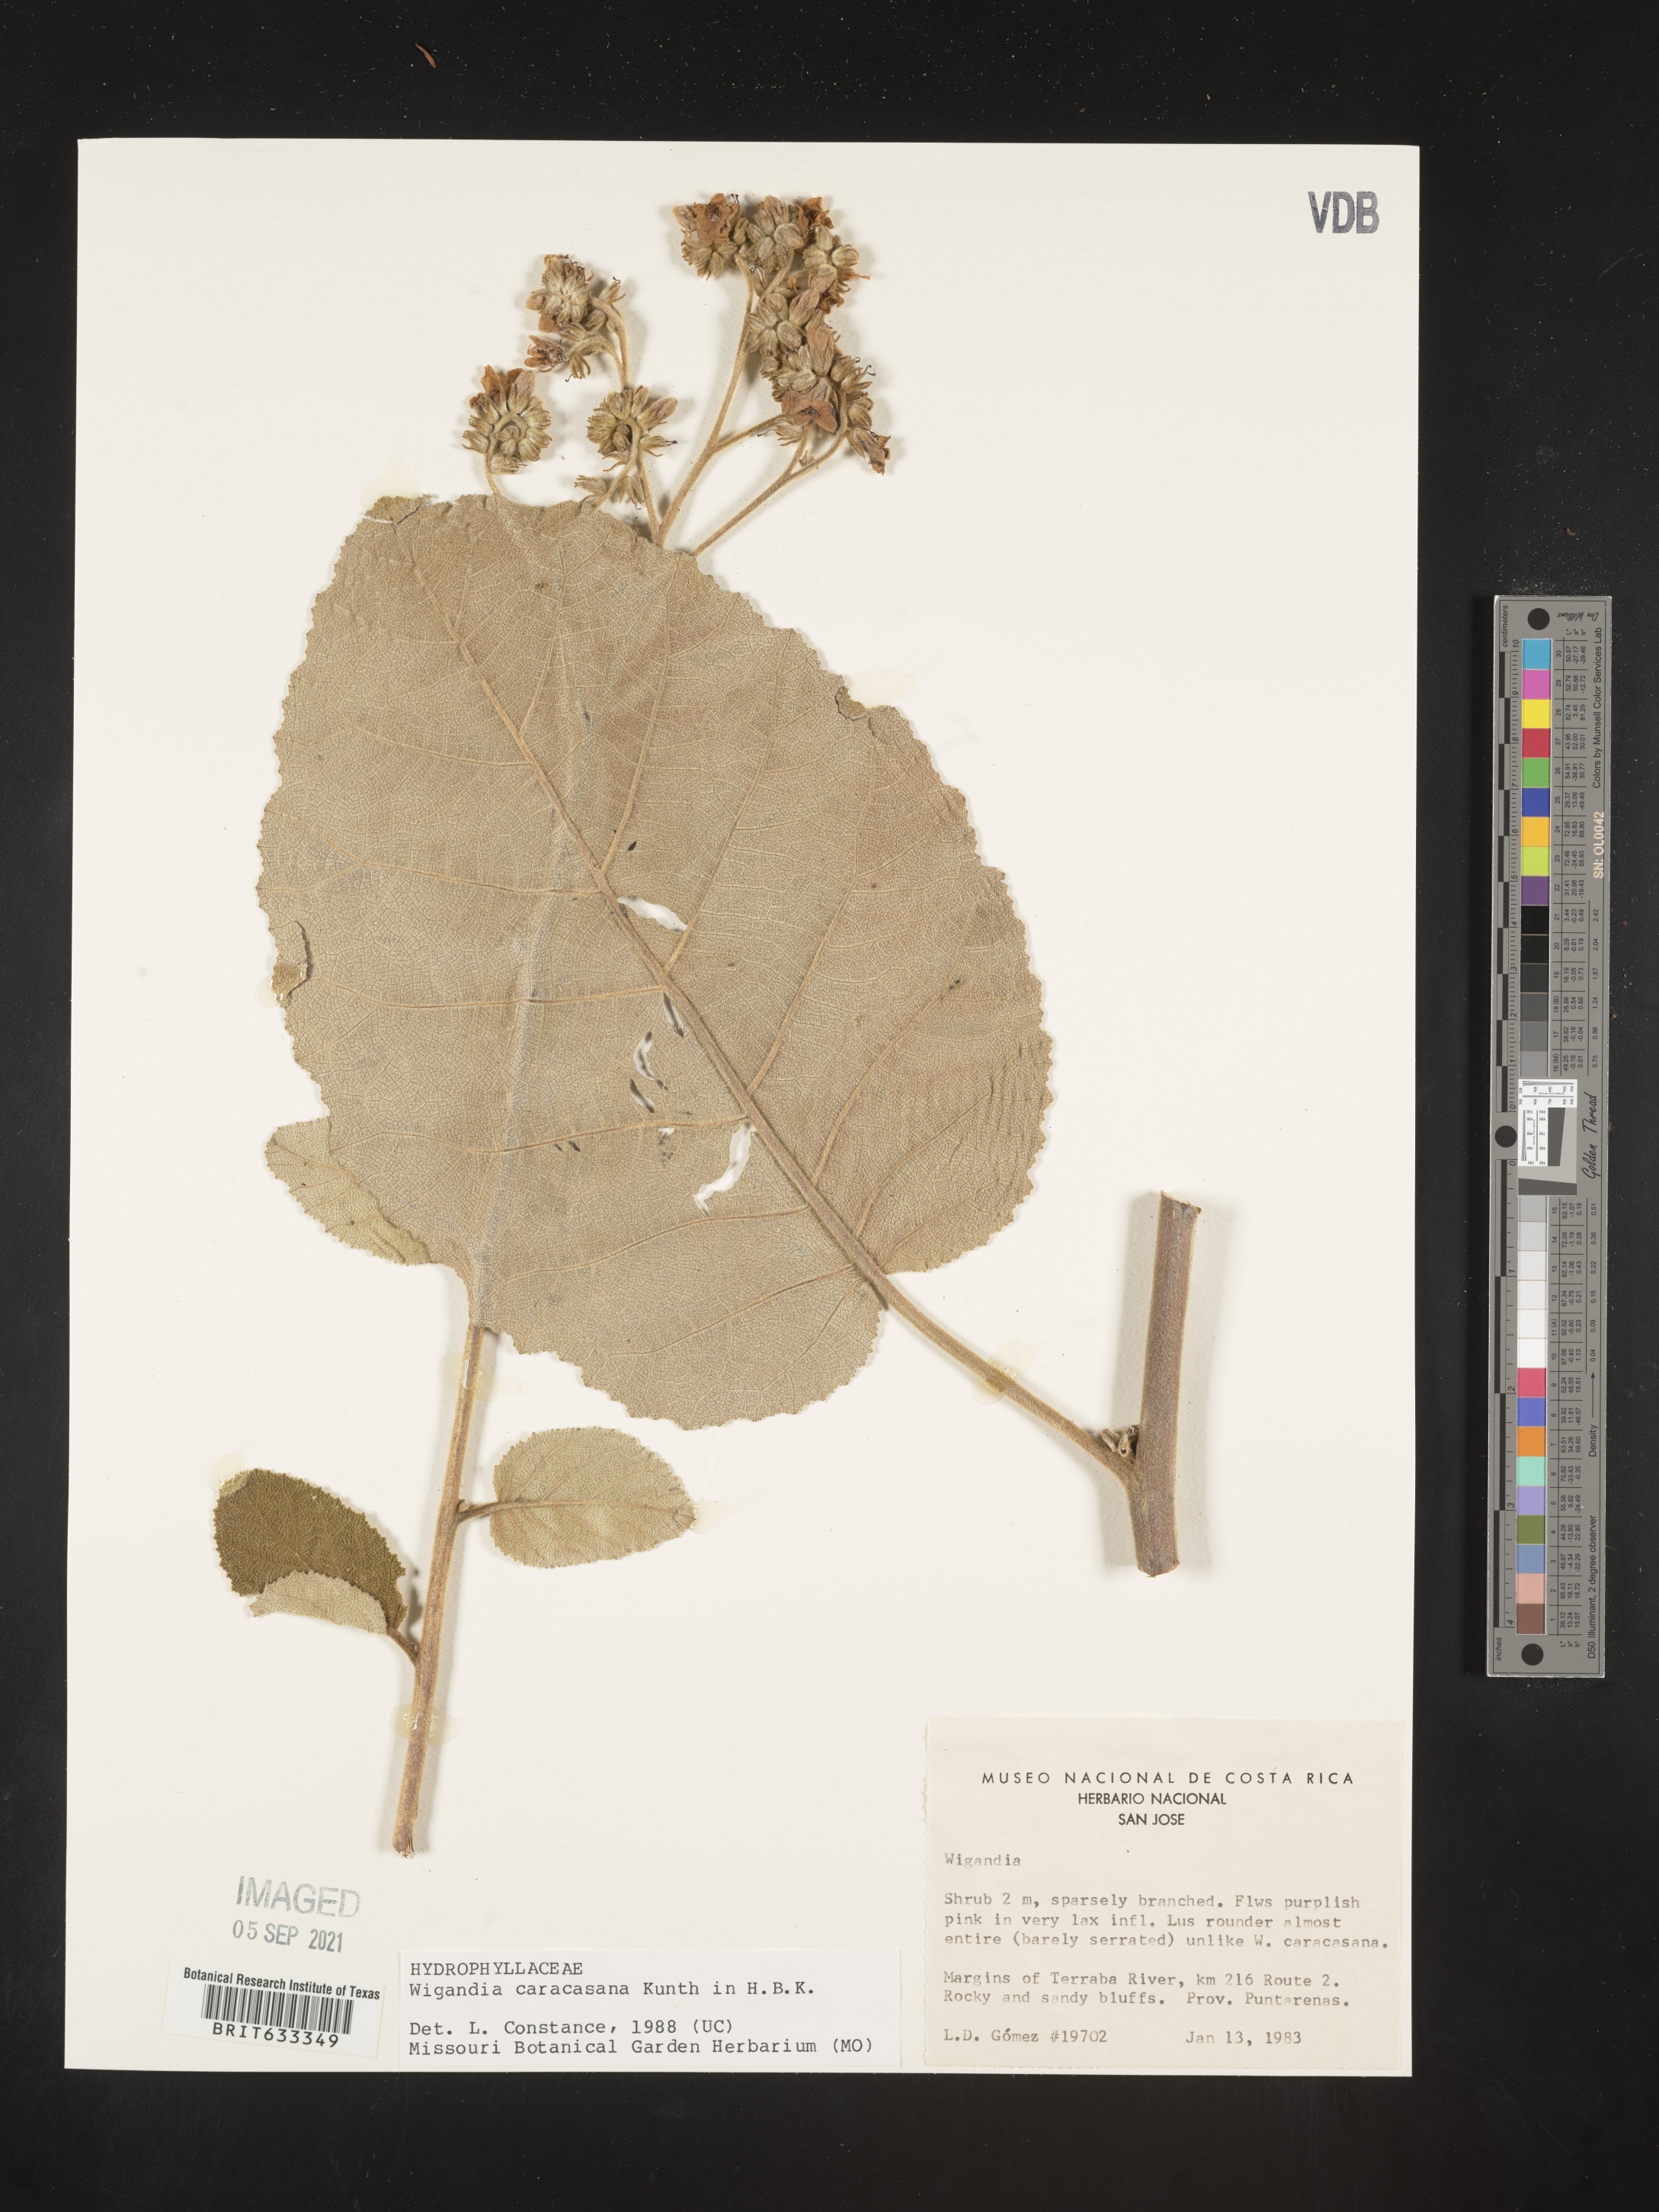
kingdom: Plantae
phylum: Tracheophyta
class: Magnoliopsida
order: Boraginales
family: Namaceae
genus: Wigandia
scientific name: Wigandia urens
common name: Caracus wigandia
